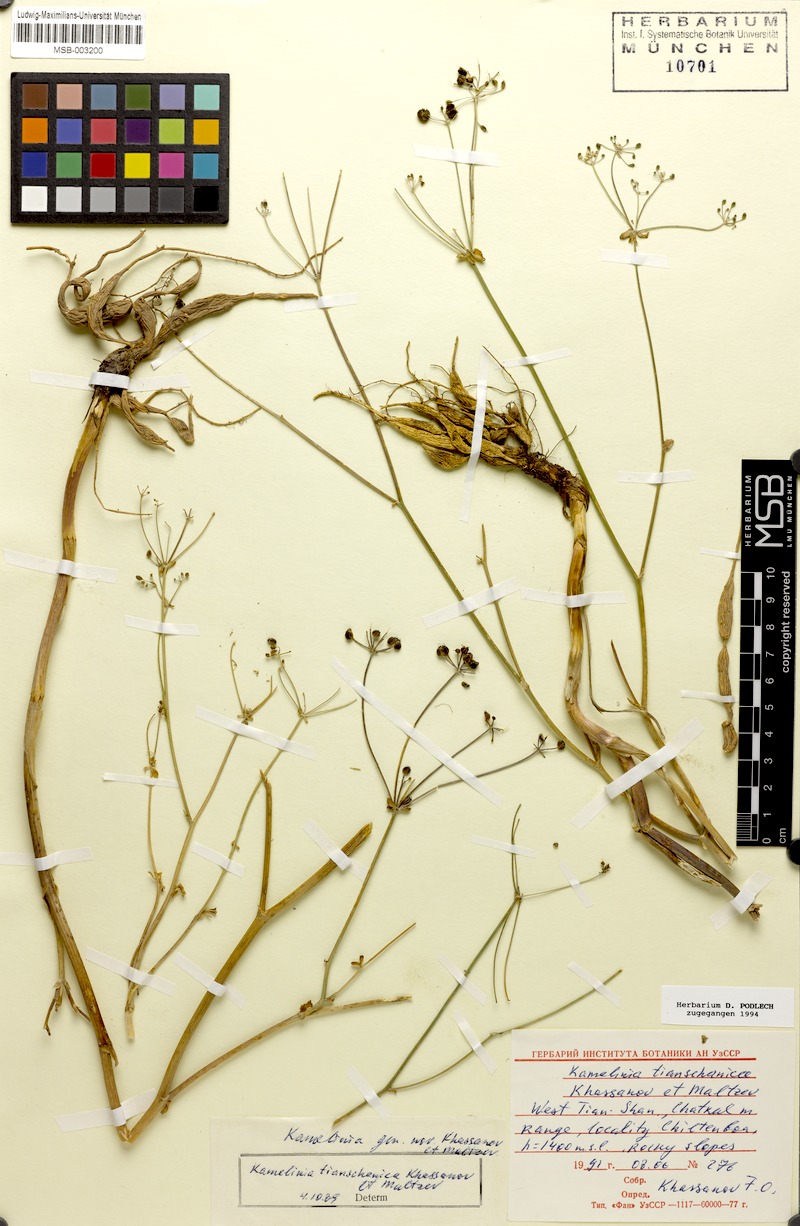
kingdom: Plantae
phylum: Tracheophyta
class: Magnoliopsida
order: Apiales
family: Apiaceae
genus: Korshinskia
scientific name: Korshinskia tianschanica
